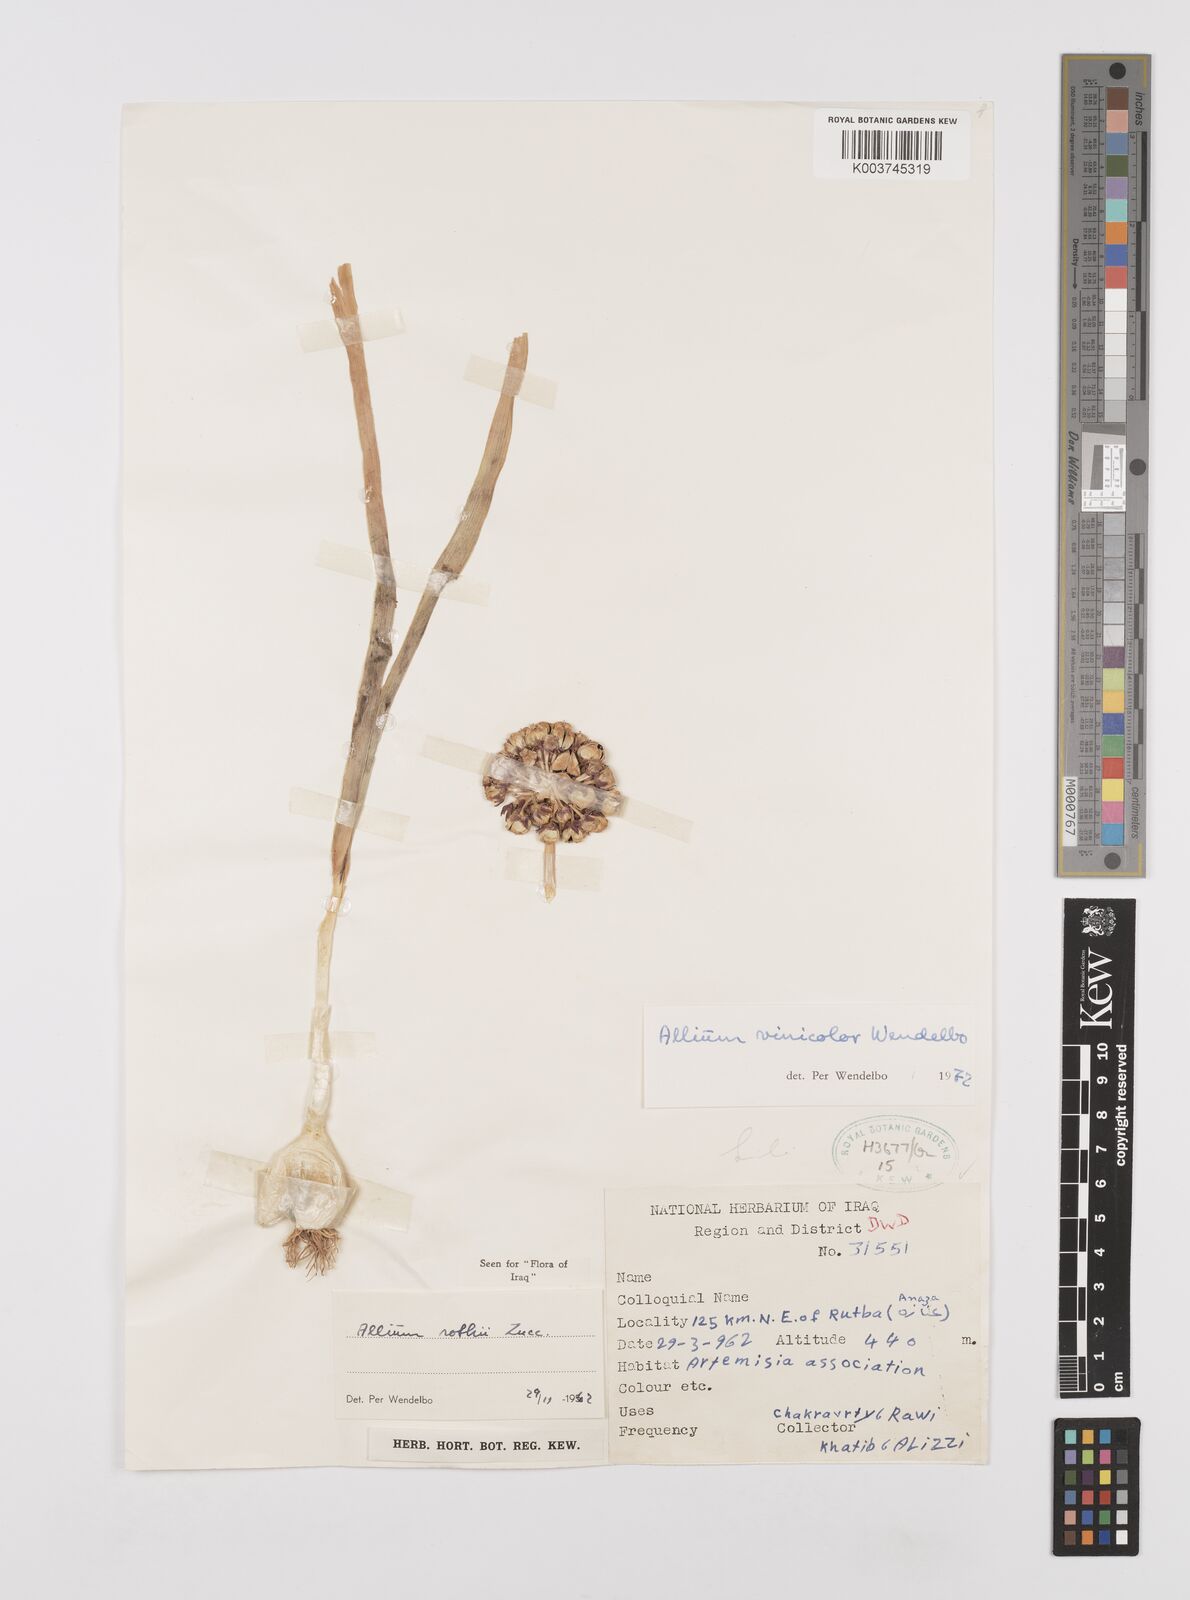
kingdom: Plantae
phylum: Tracheophyta
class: Liliopsida
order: Asparagales
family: Amaryllidaceae
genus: Allium
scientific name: Allium vinicolor
